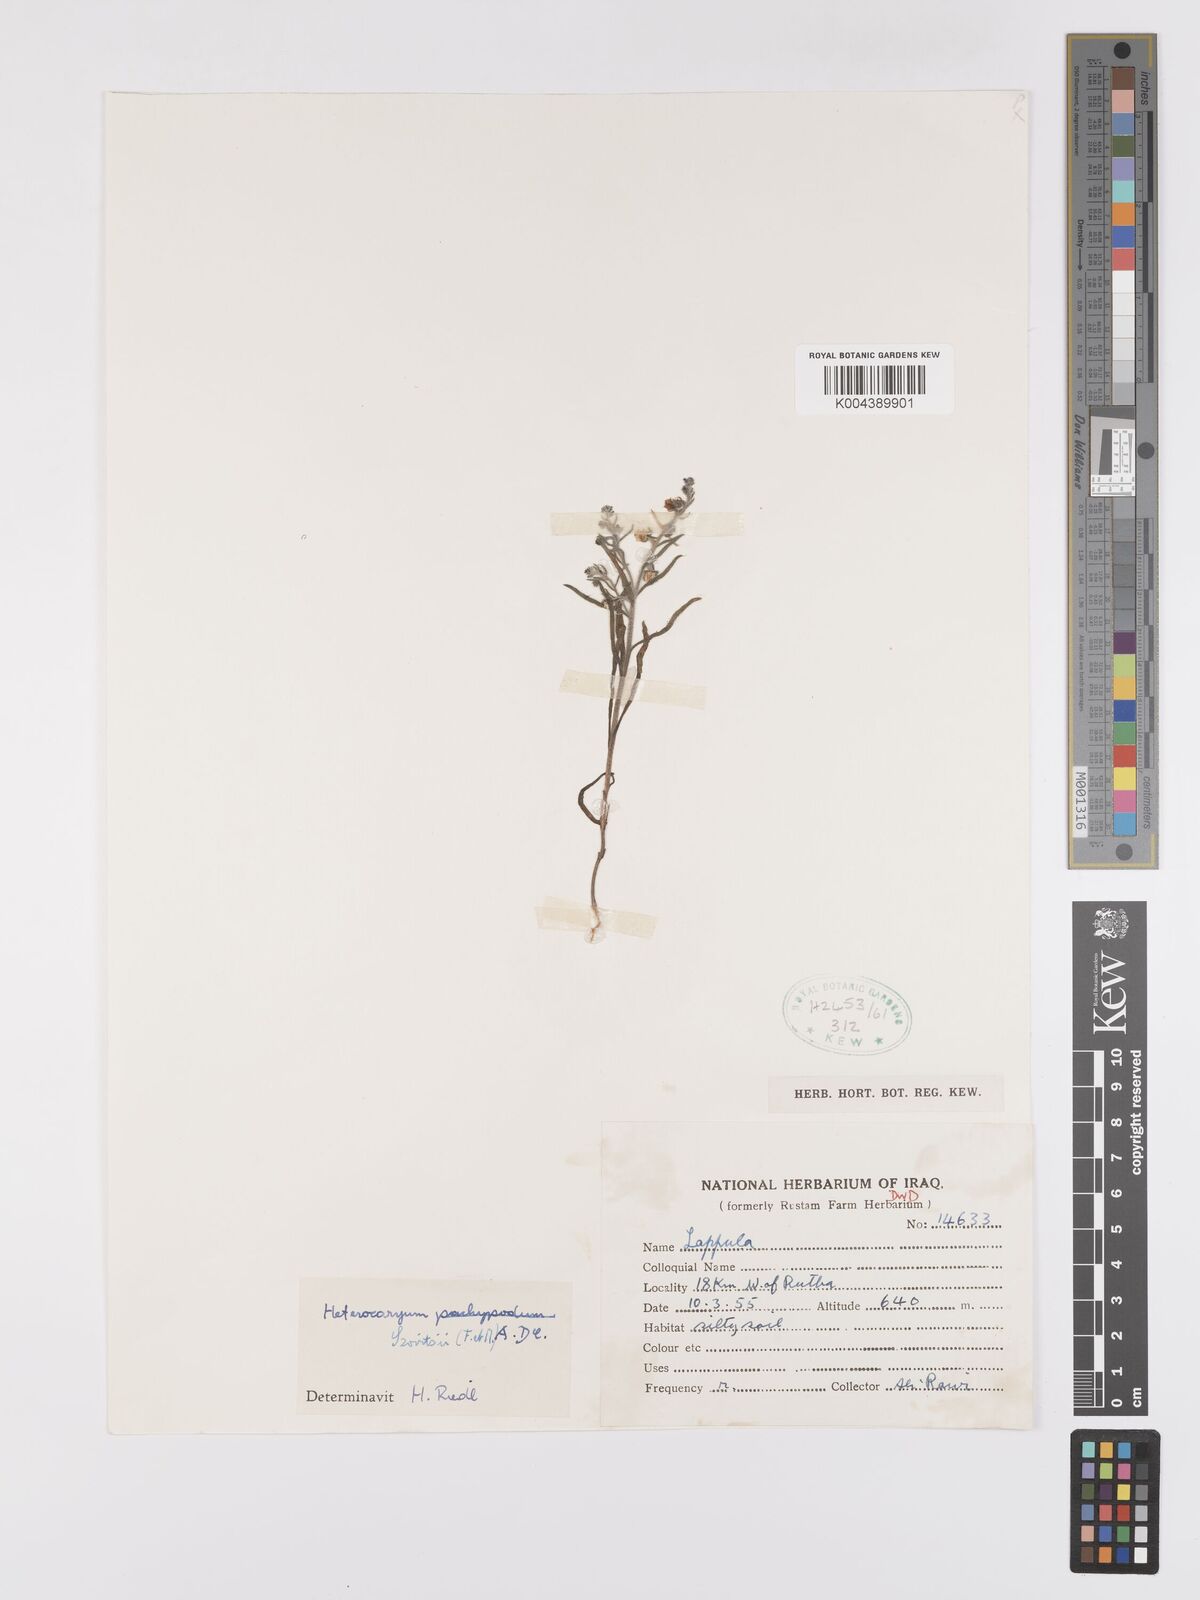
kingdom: Plantae
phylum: Tracheophyta
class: Magnoliopsida
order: Boraginales
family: Boraginaceae
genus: Pseudoheterocaryum
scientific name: Pseudoheterocaryum szovitsianum
